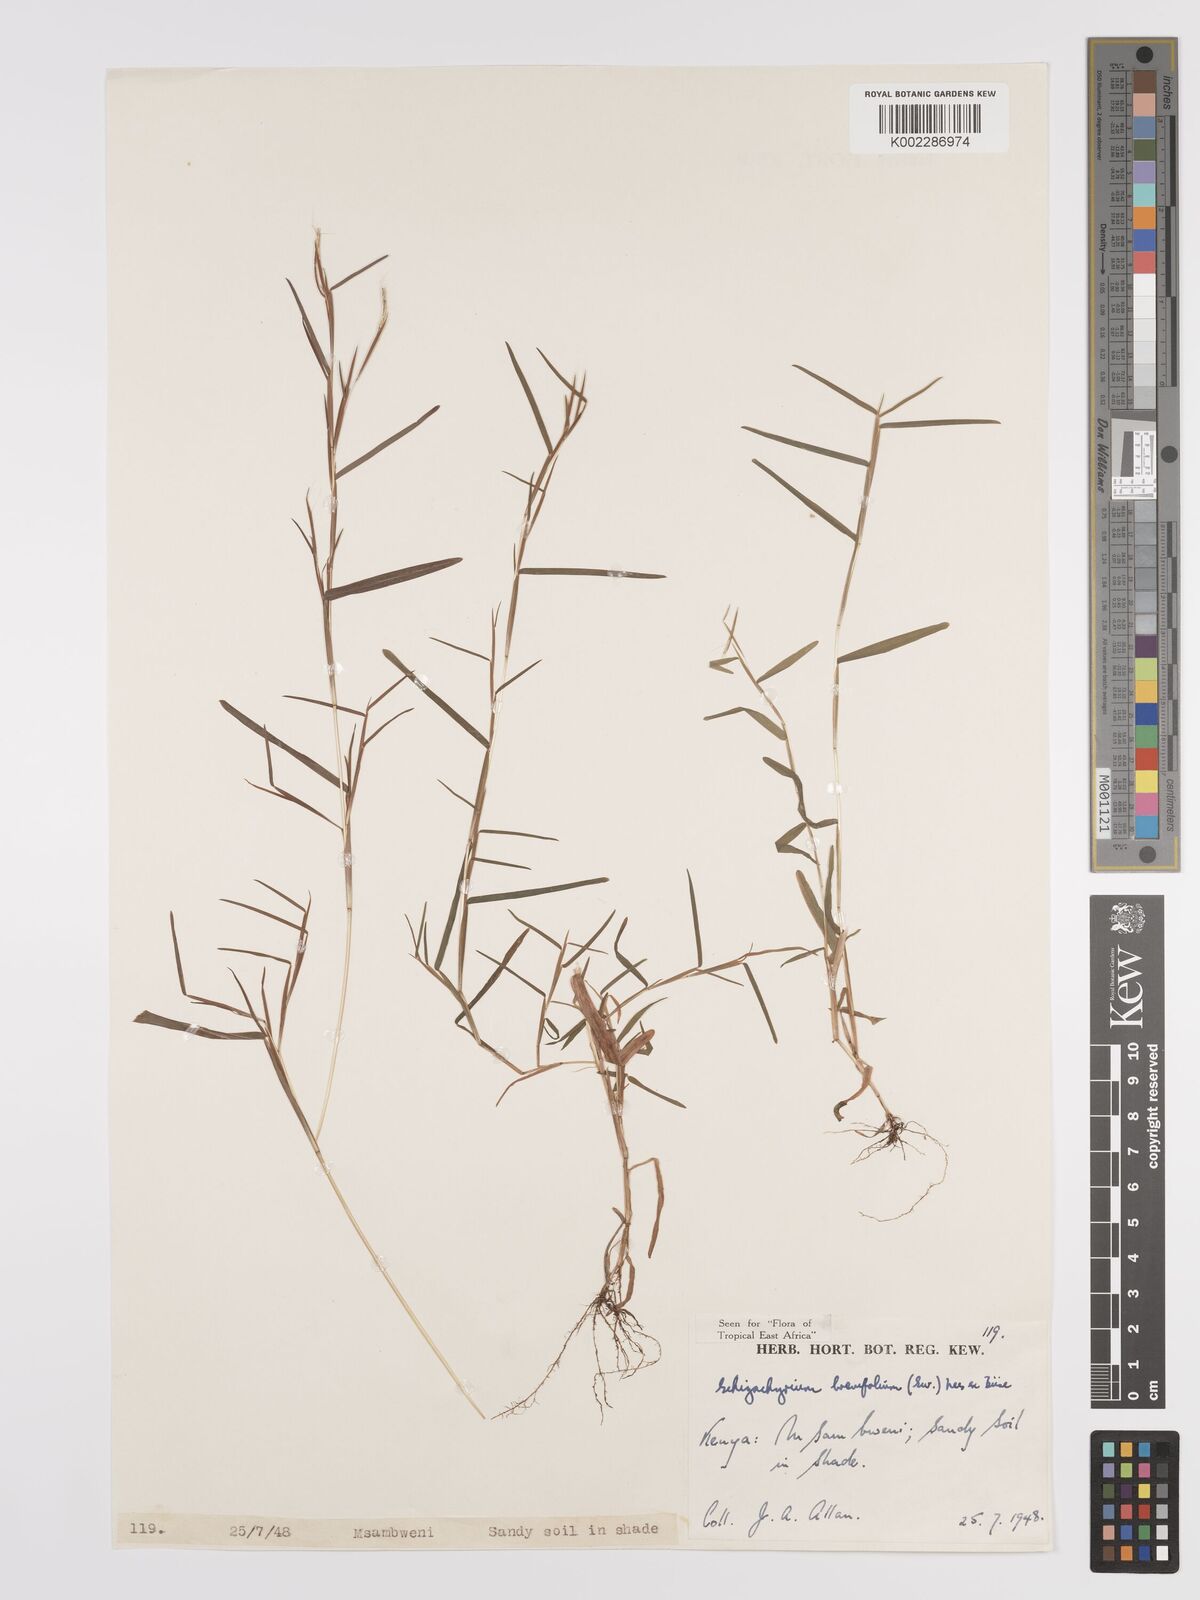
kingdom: Plantae
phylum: Tracheophyta
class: Liliopsida
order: Poales
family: Poaceae
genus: Schizachyrium
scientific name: Schizachyrium brevifolium
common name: Serillo dulce
